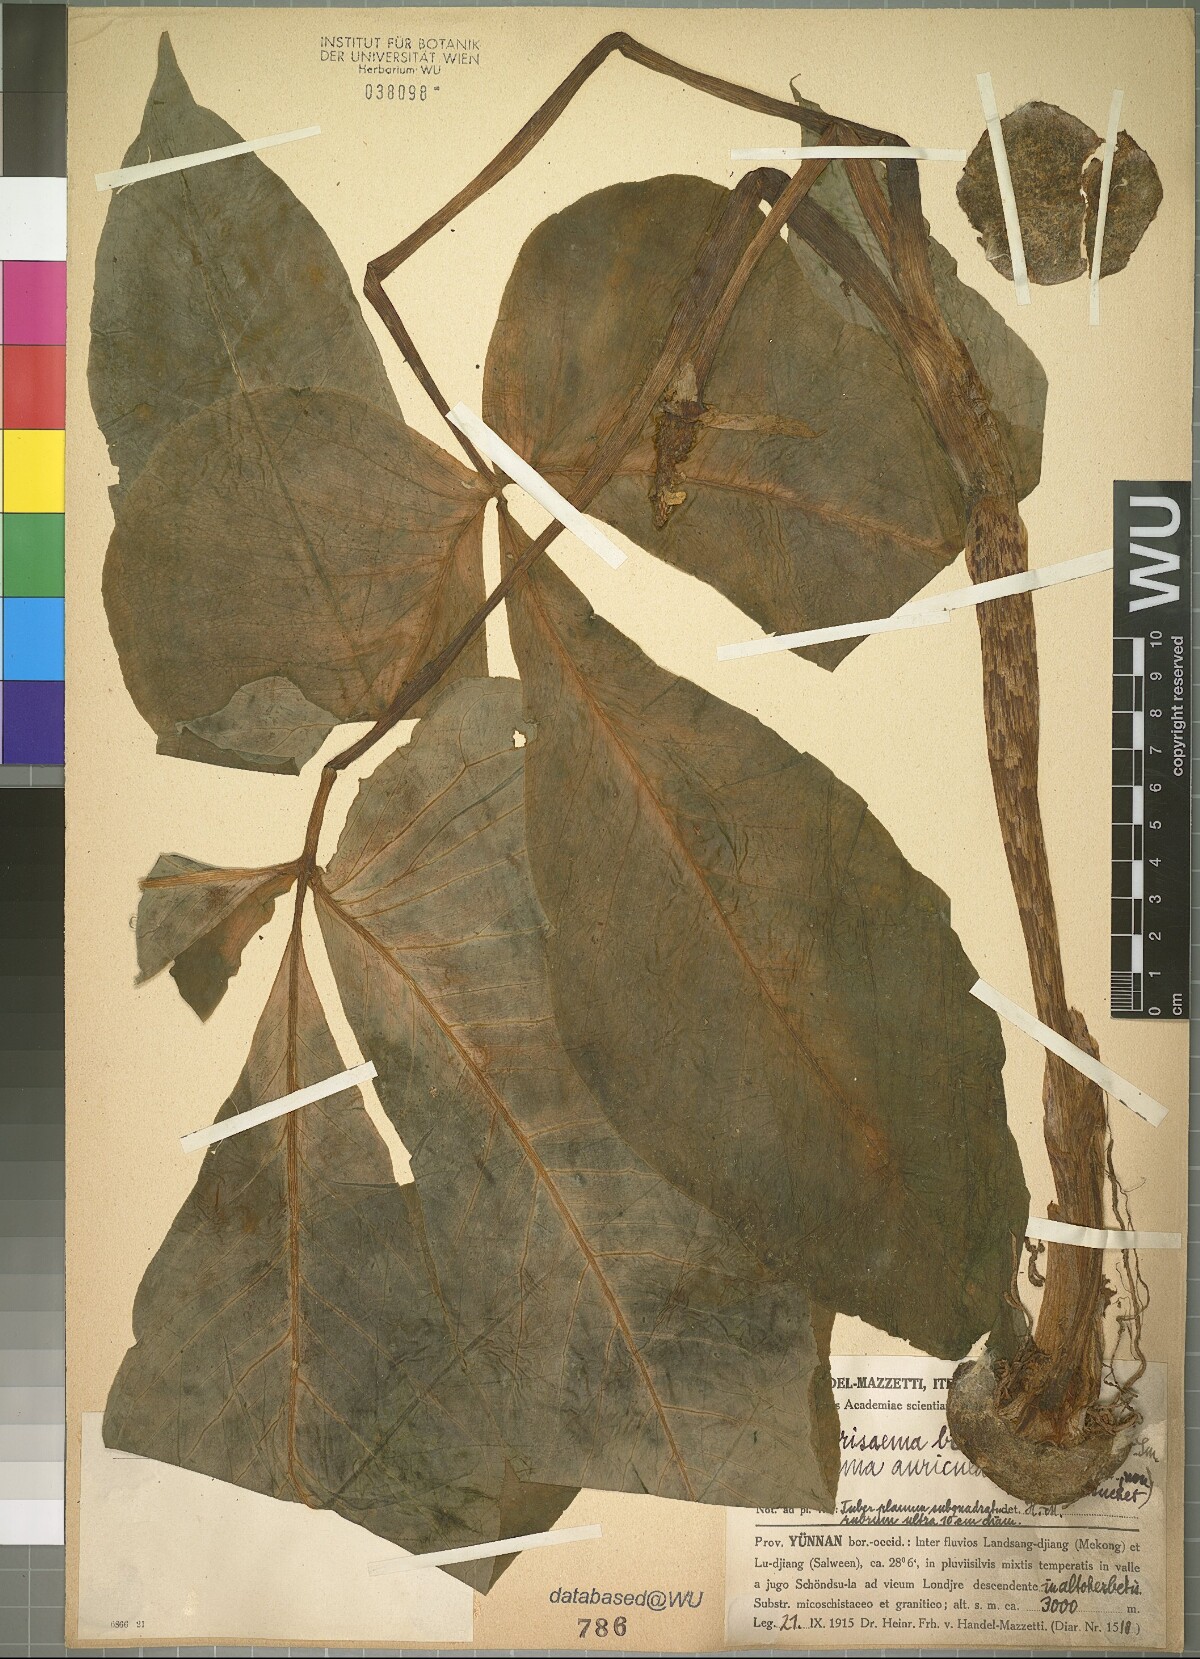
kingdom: Plantae
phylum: Tracheophyta
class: Liliopsida
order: Alismatales
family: Araceae
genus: Arisaema
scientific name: Arisaema wattii
